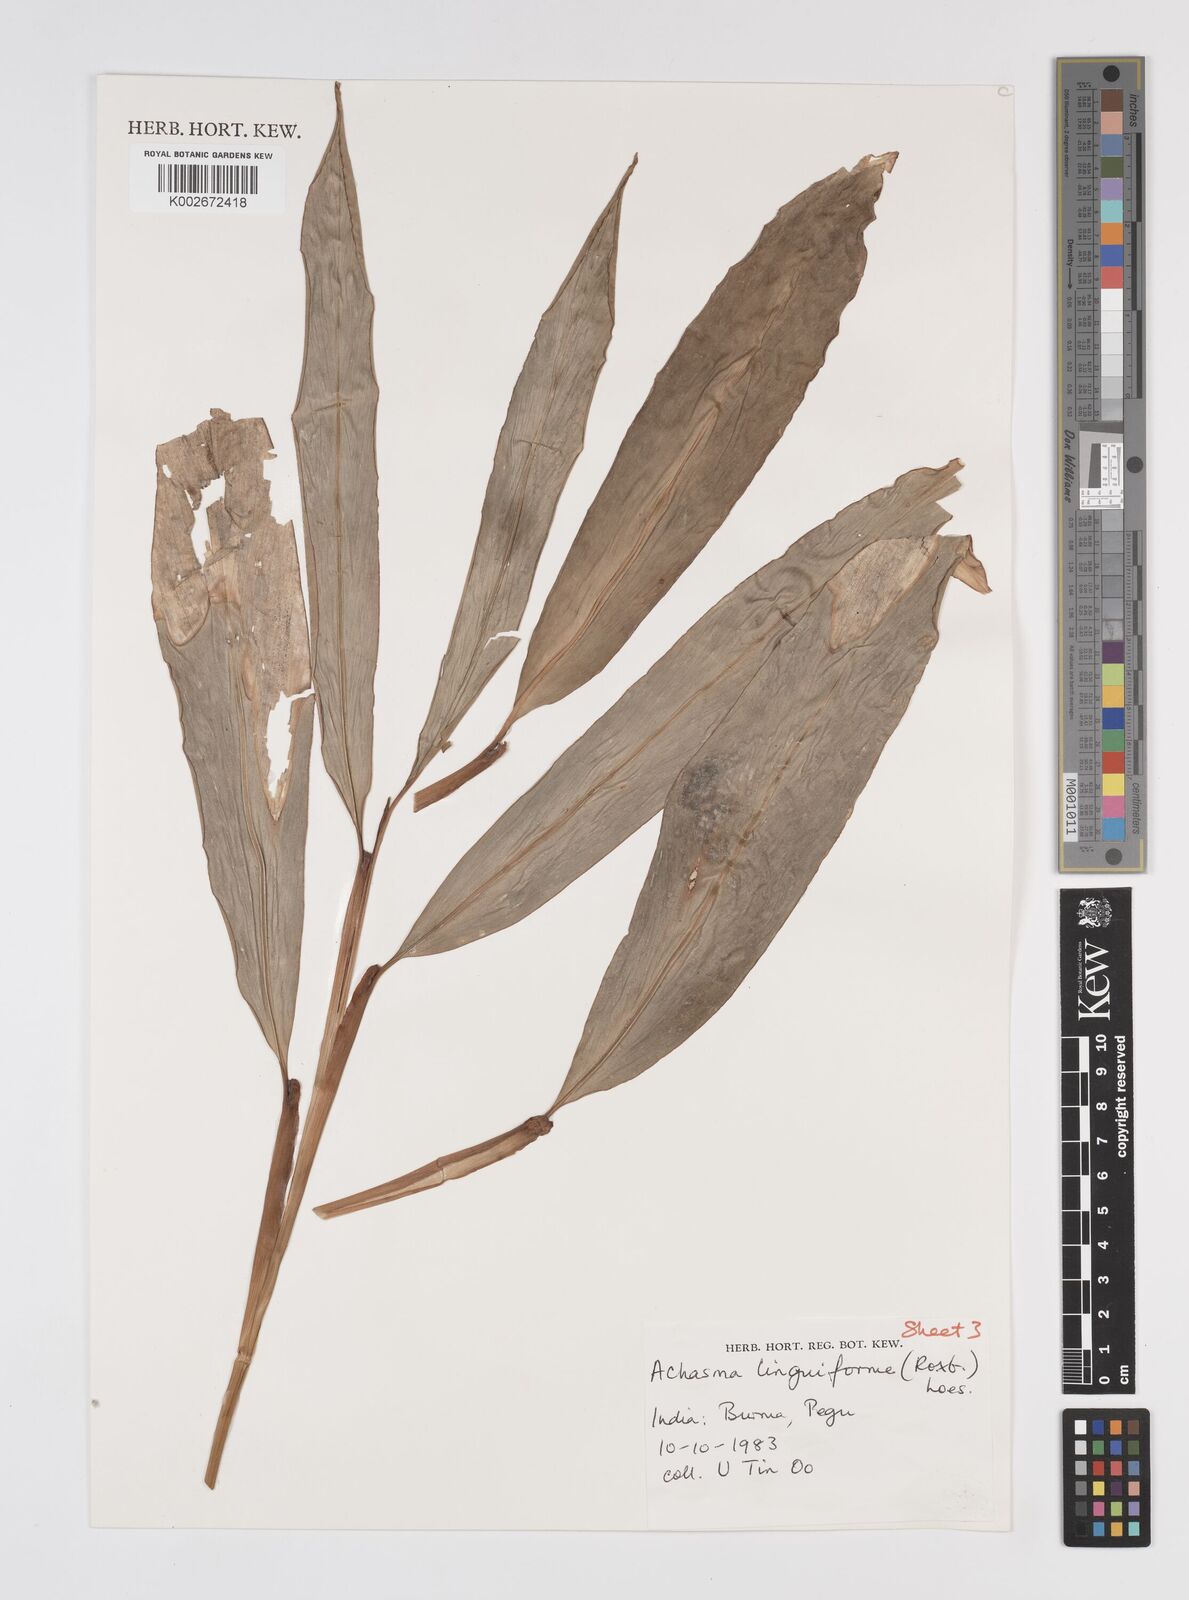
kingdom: Plantae
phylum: Tracheophyta
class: Liliopsida
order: Zingiberales
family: Zingiberaceae
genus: Etlingera
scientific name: Etlingera linguiformis
